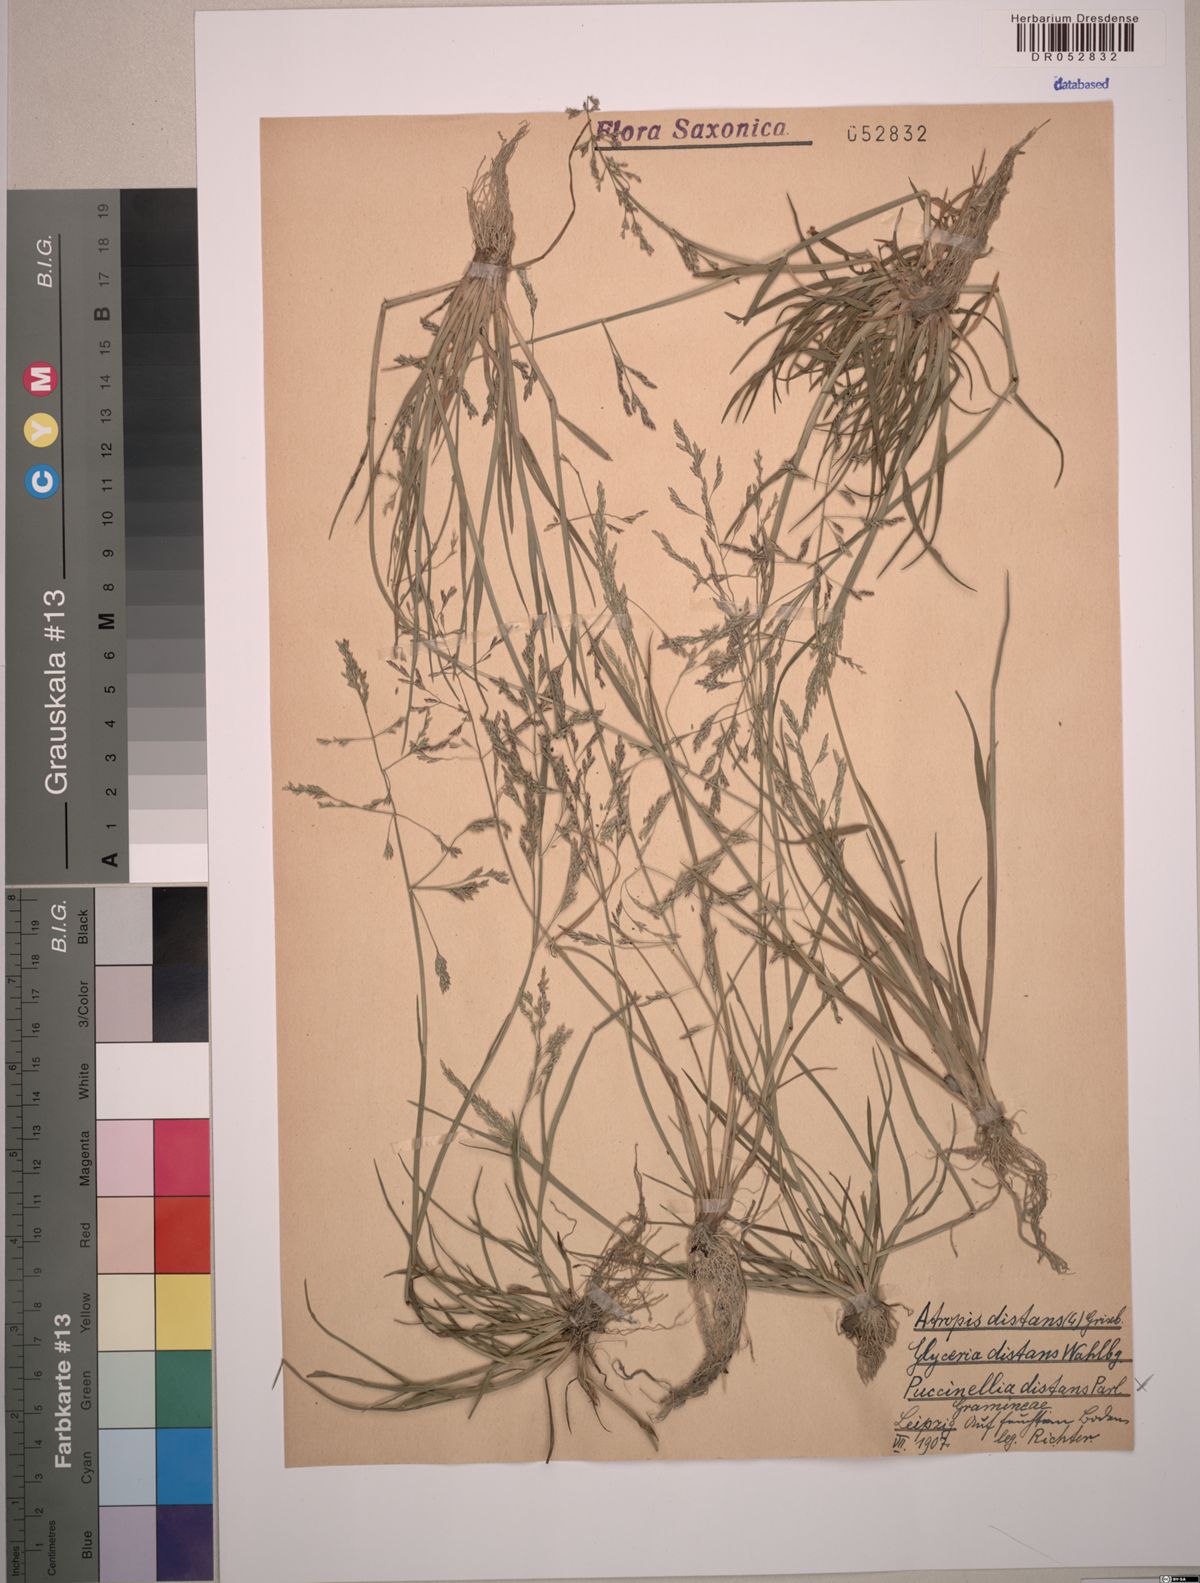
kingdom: Plantae
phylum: Tracheophyta
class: Liliopsida
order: Poales
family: Poaceae
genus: Puccinellia
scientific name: Puccinellia distans
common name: Weeping alkaligrass
